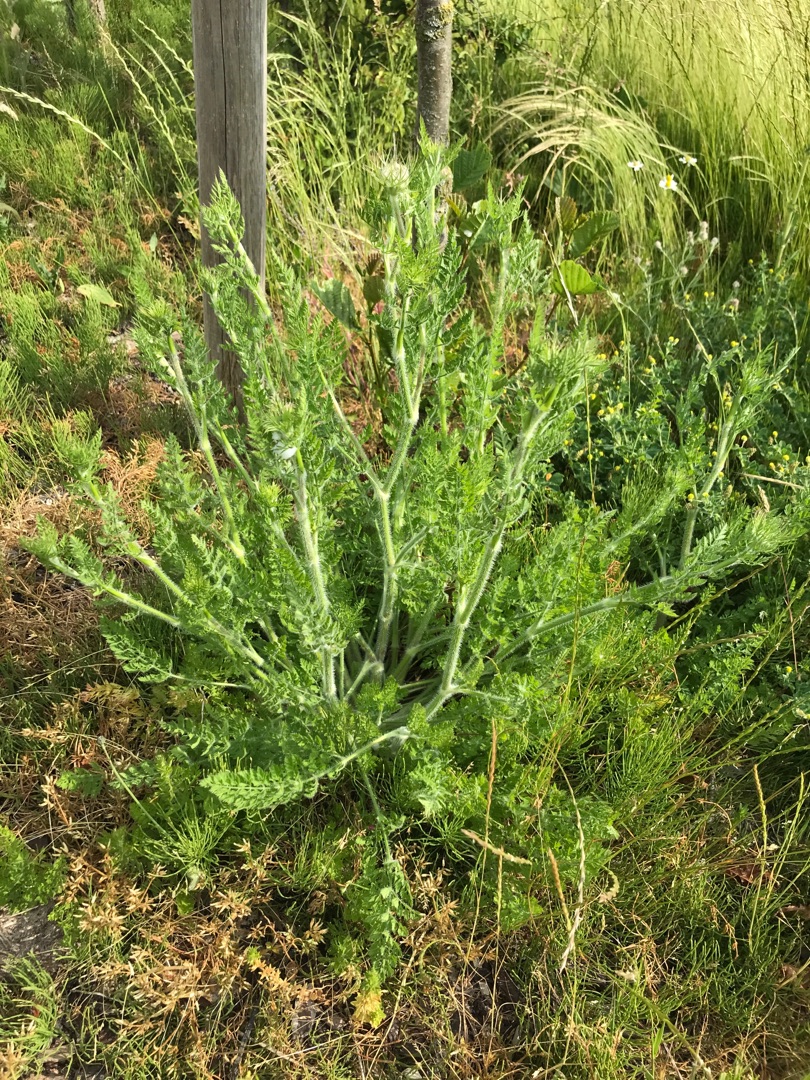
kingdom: Plantae
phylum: Tracheophyta
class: Magnoliopsida
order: Apiales
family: Apiaceae
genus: Daucus
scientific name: Daucus carota
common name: Gulerod
